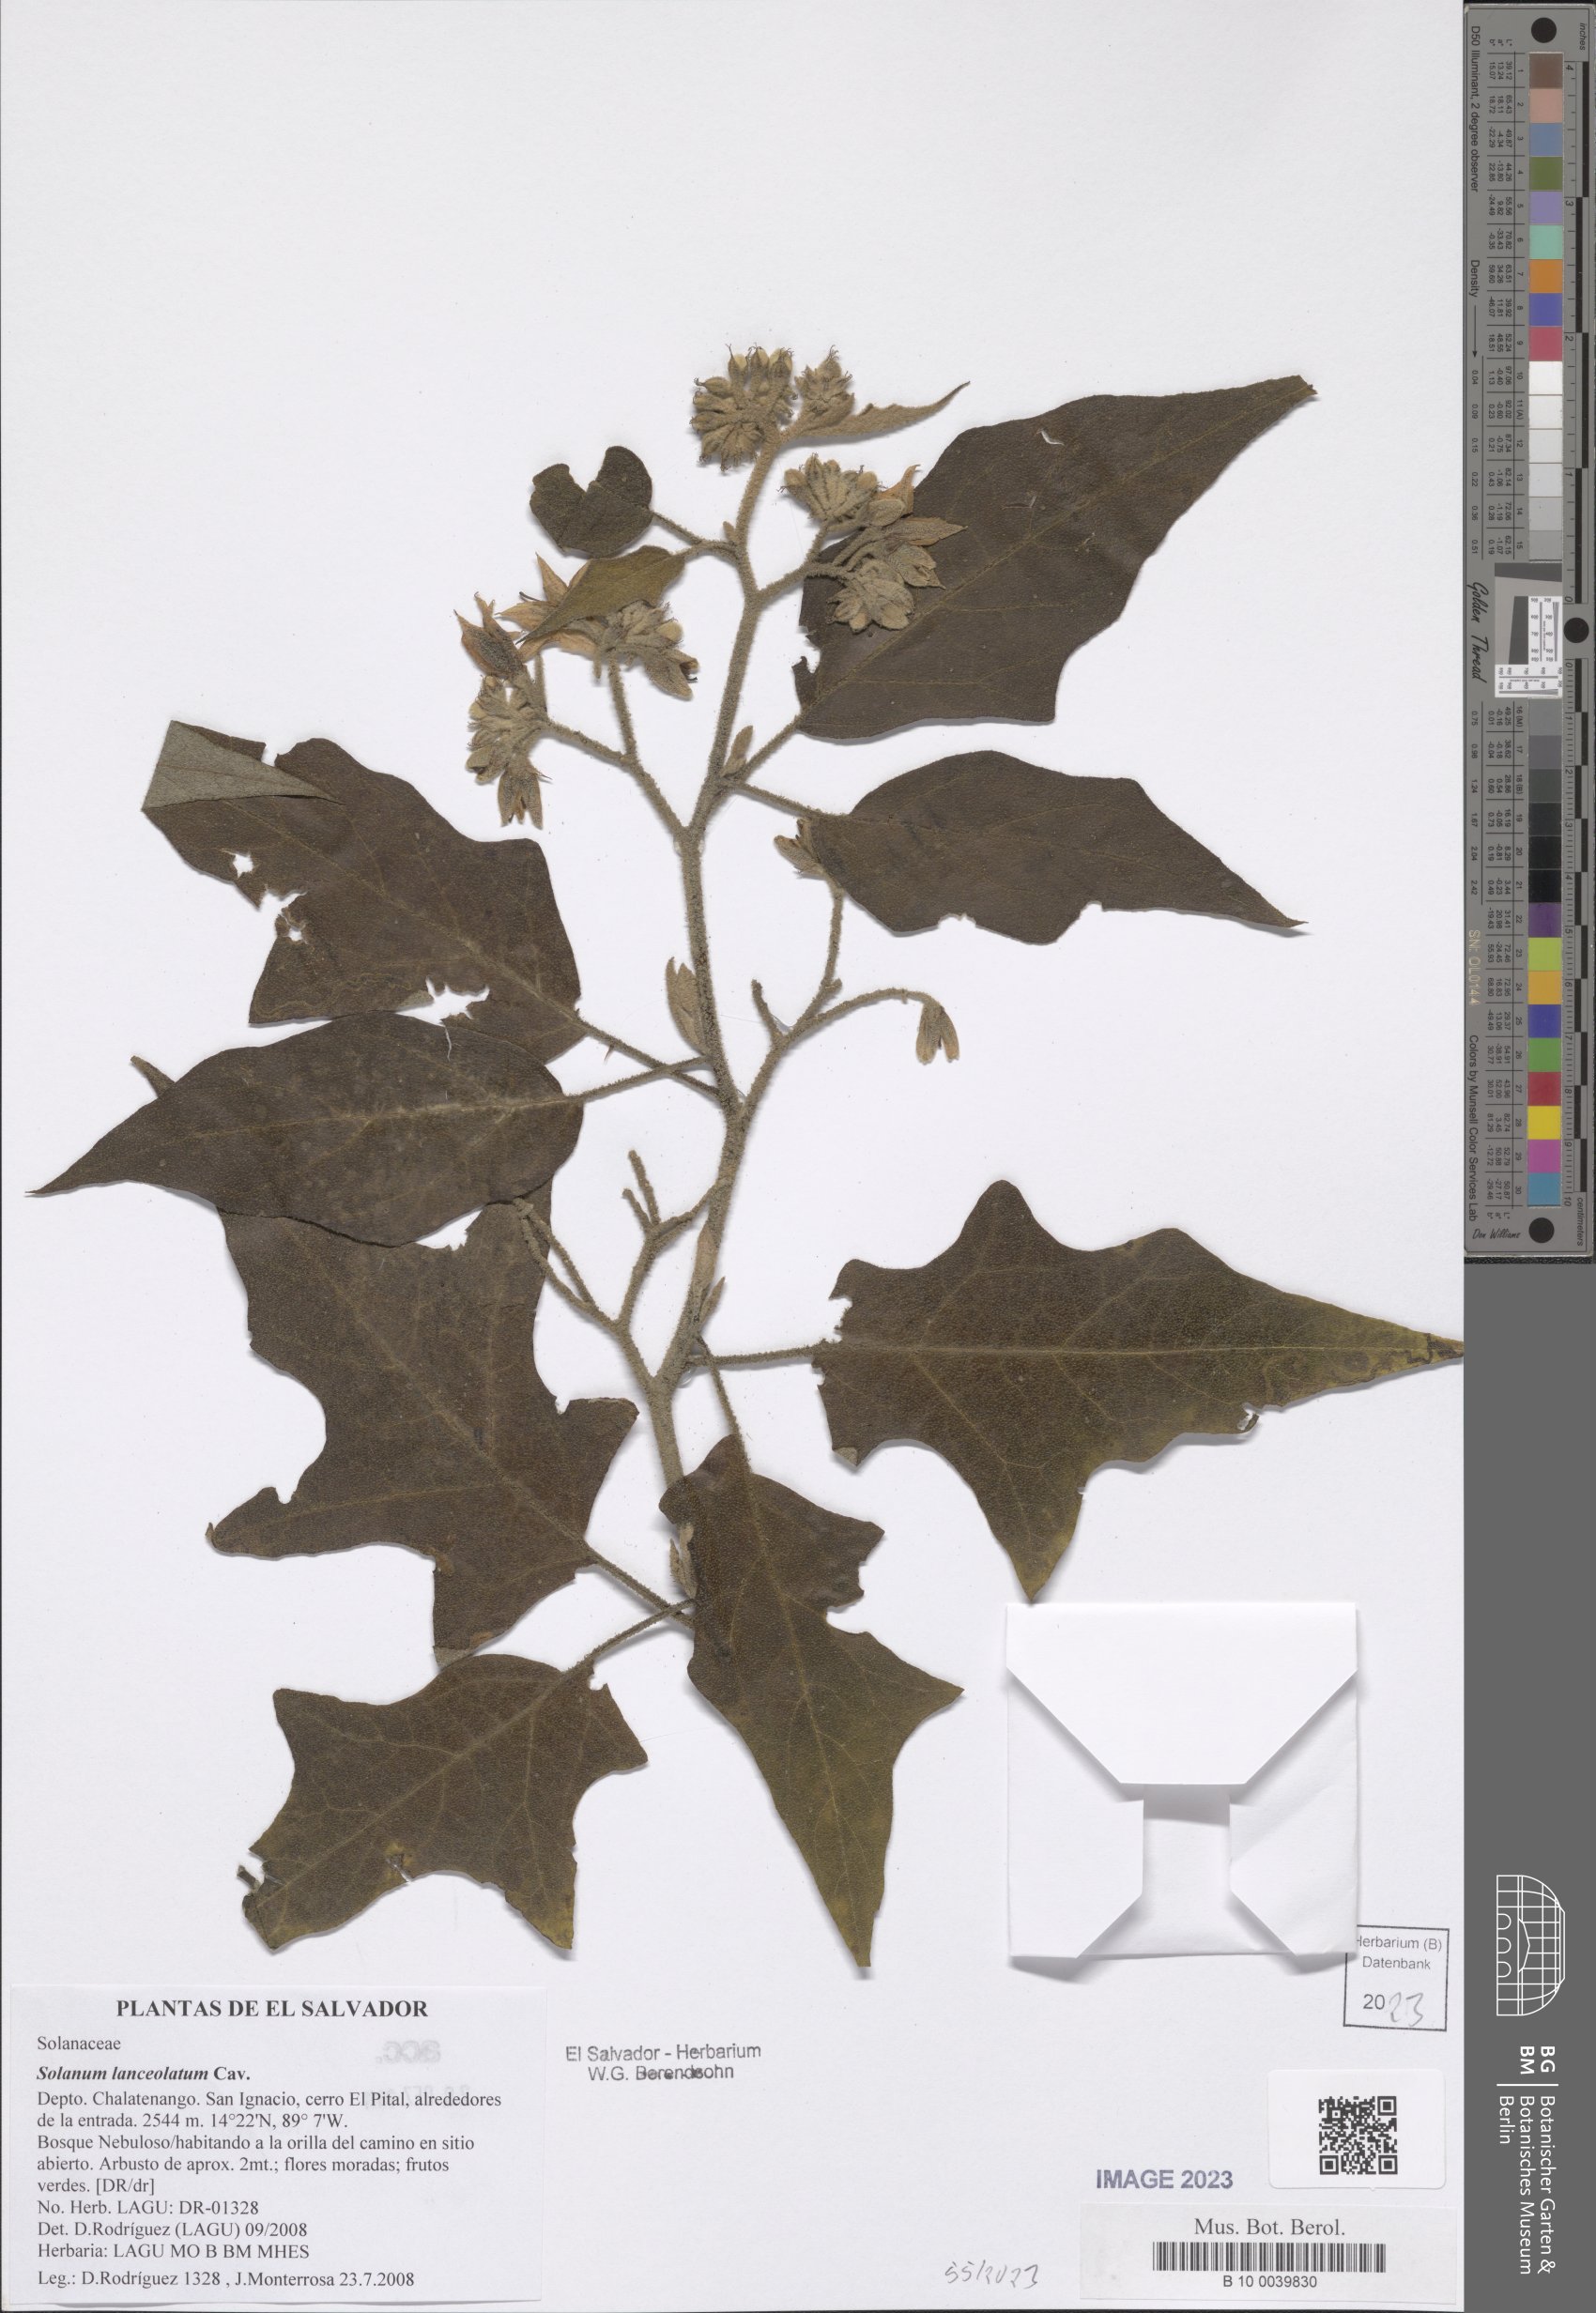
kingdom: Plantae
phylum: Tracheophyta
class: Magnoliopsida
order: Solanales
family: Solanaceae
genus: Solanum
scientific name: Solanum lanceolatum
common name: Orangeberry nightshade
